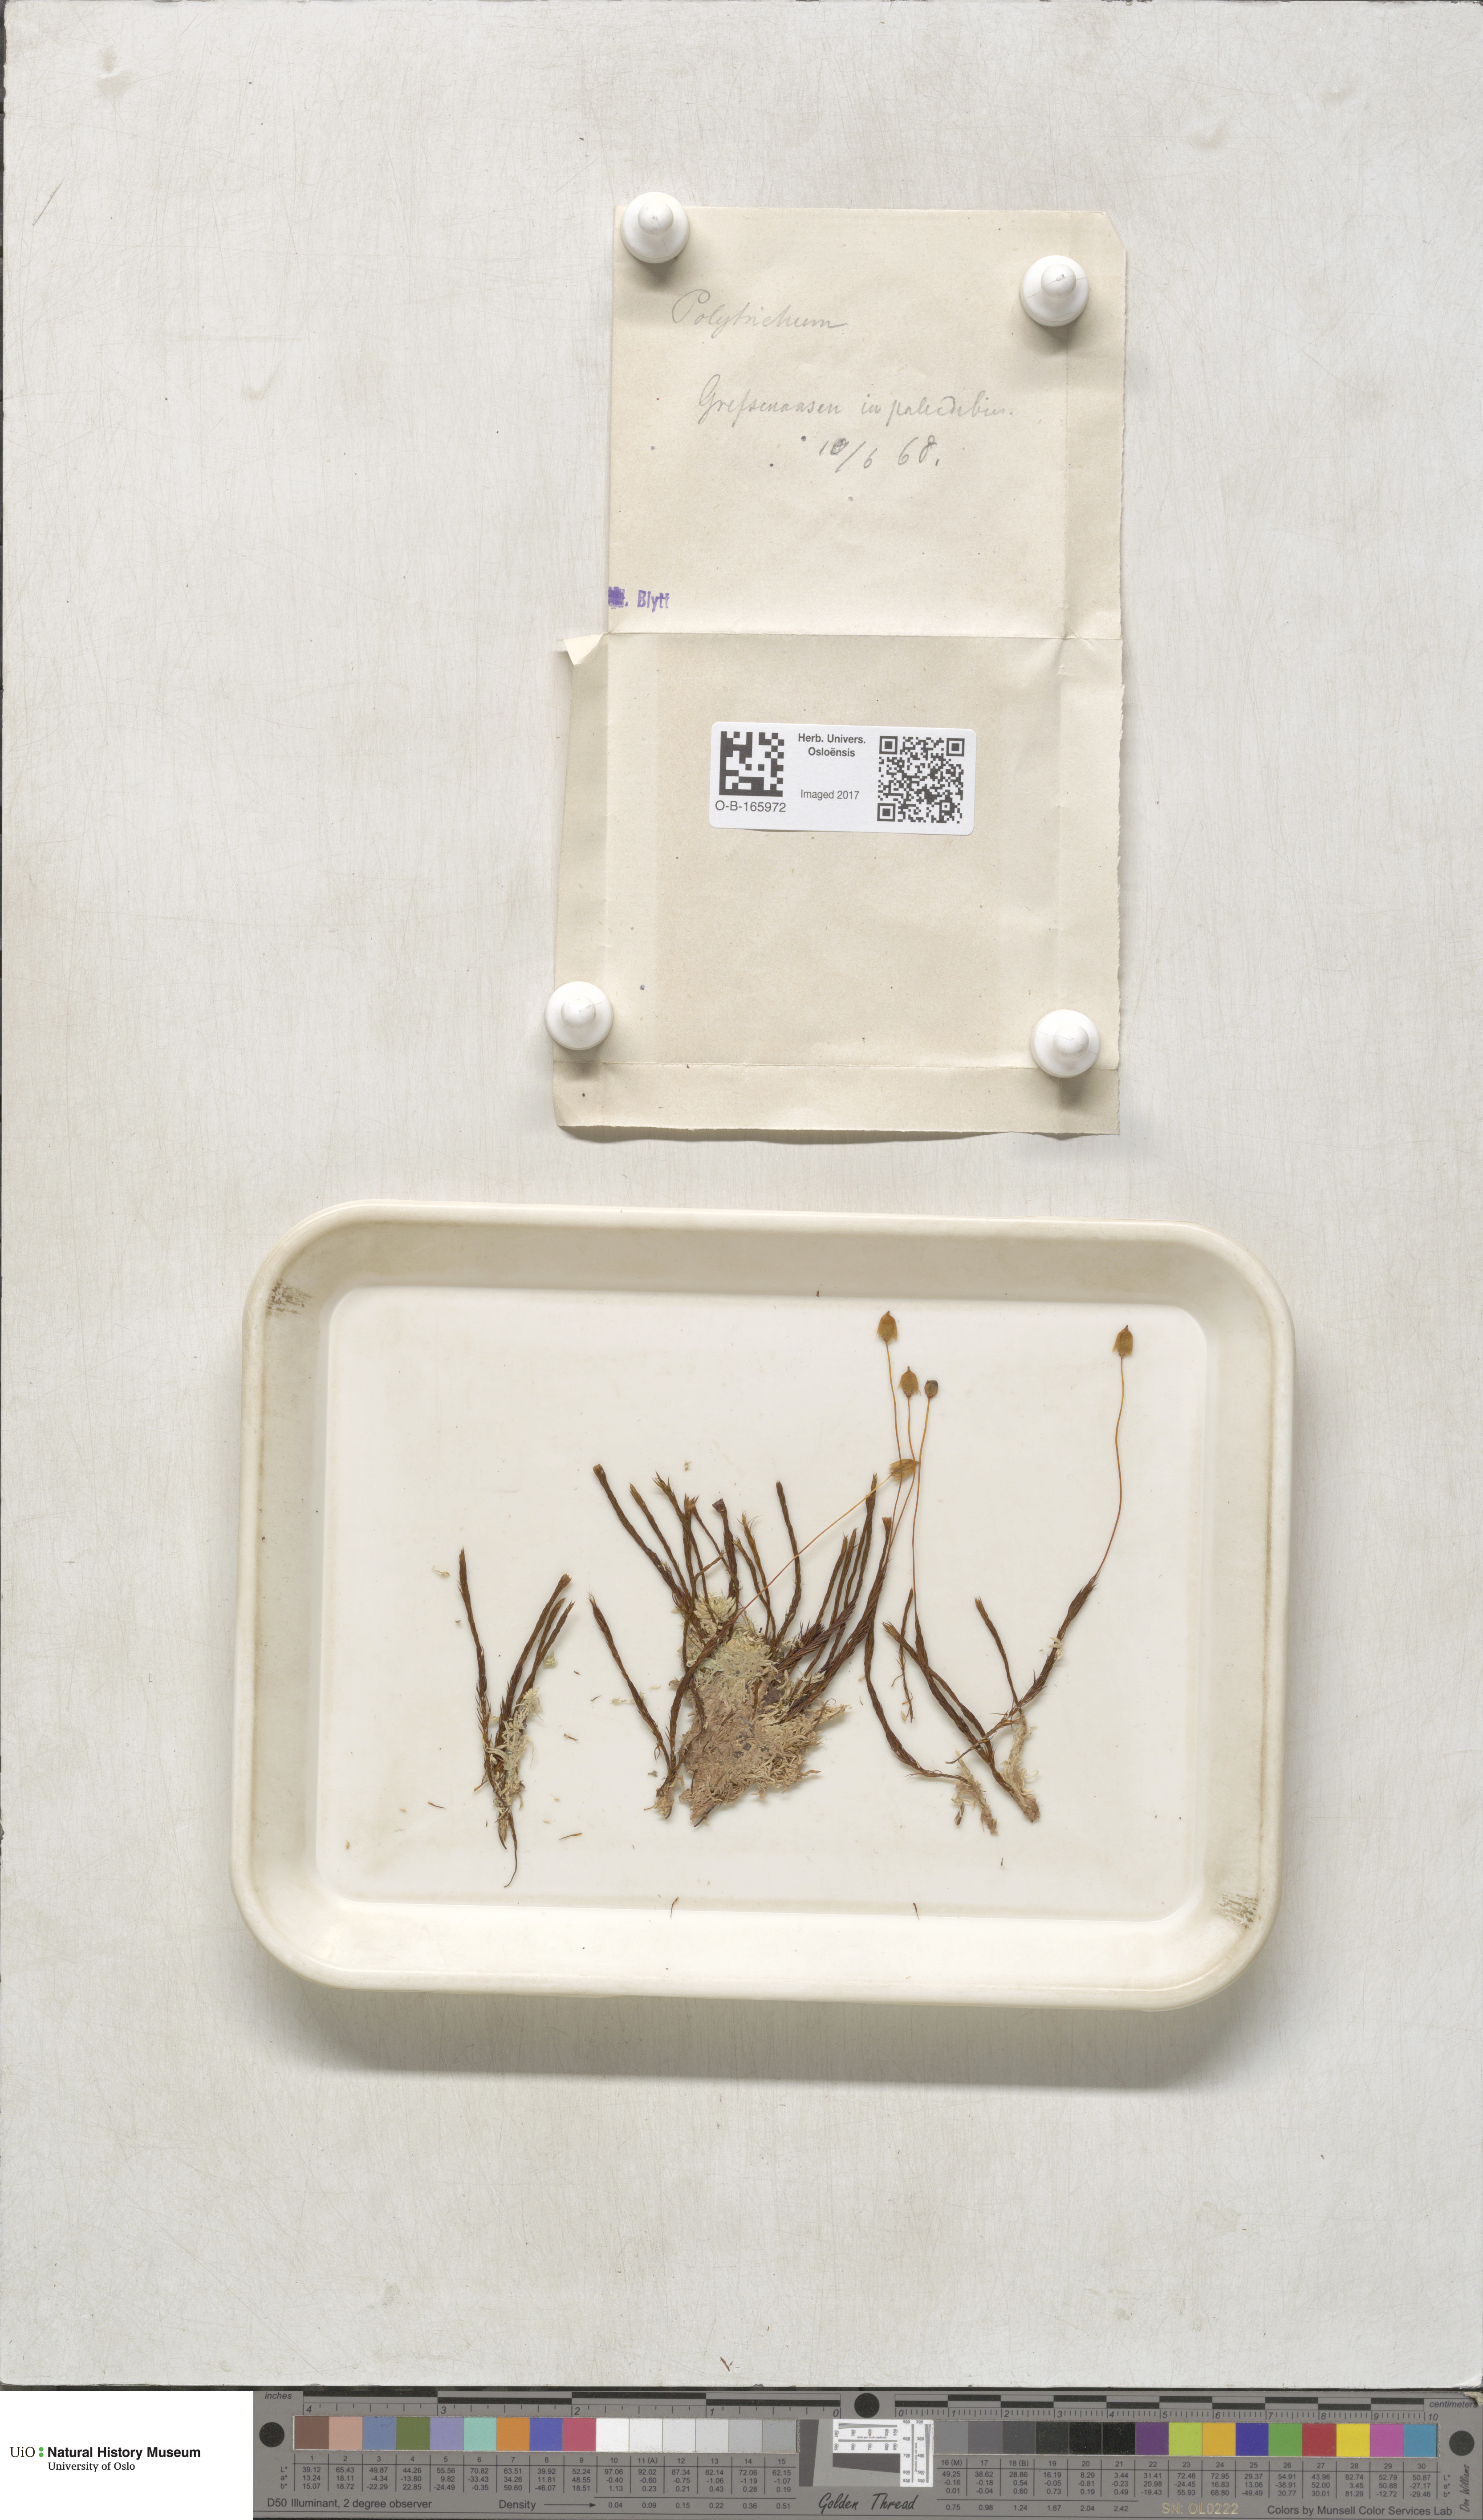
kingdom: Plantae
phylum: Bryophyta
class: Polytrichopsida
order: Polytrichales
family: Polytrichaceae
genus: Polytrichum
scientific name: Polytrichum
